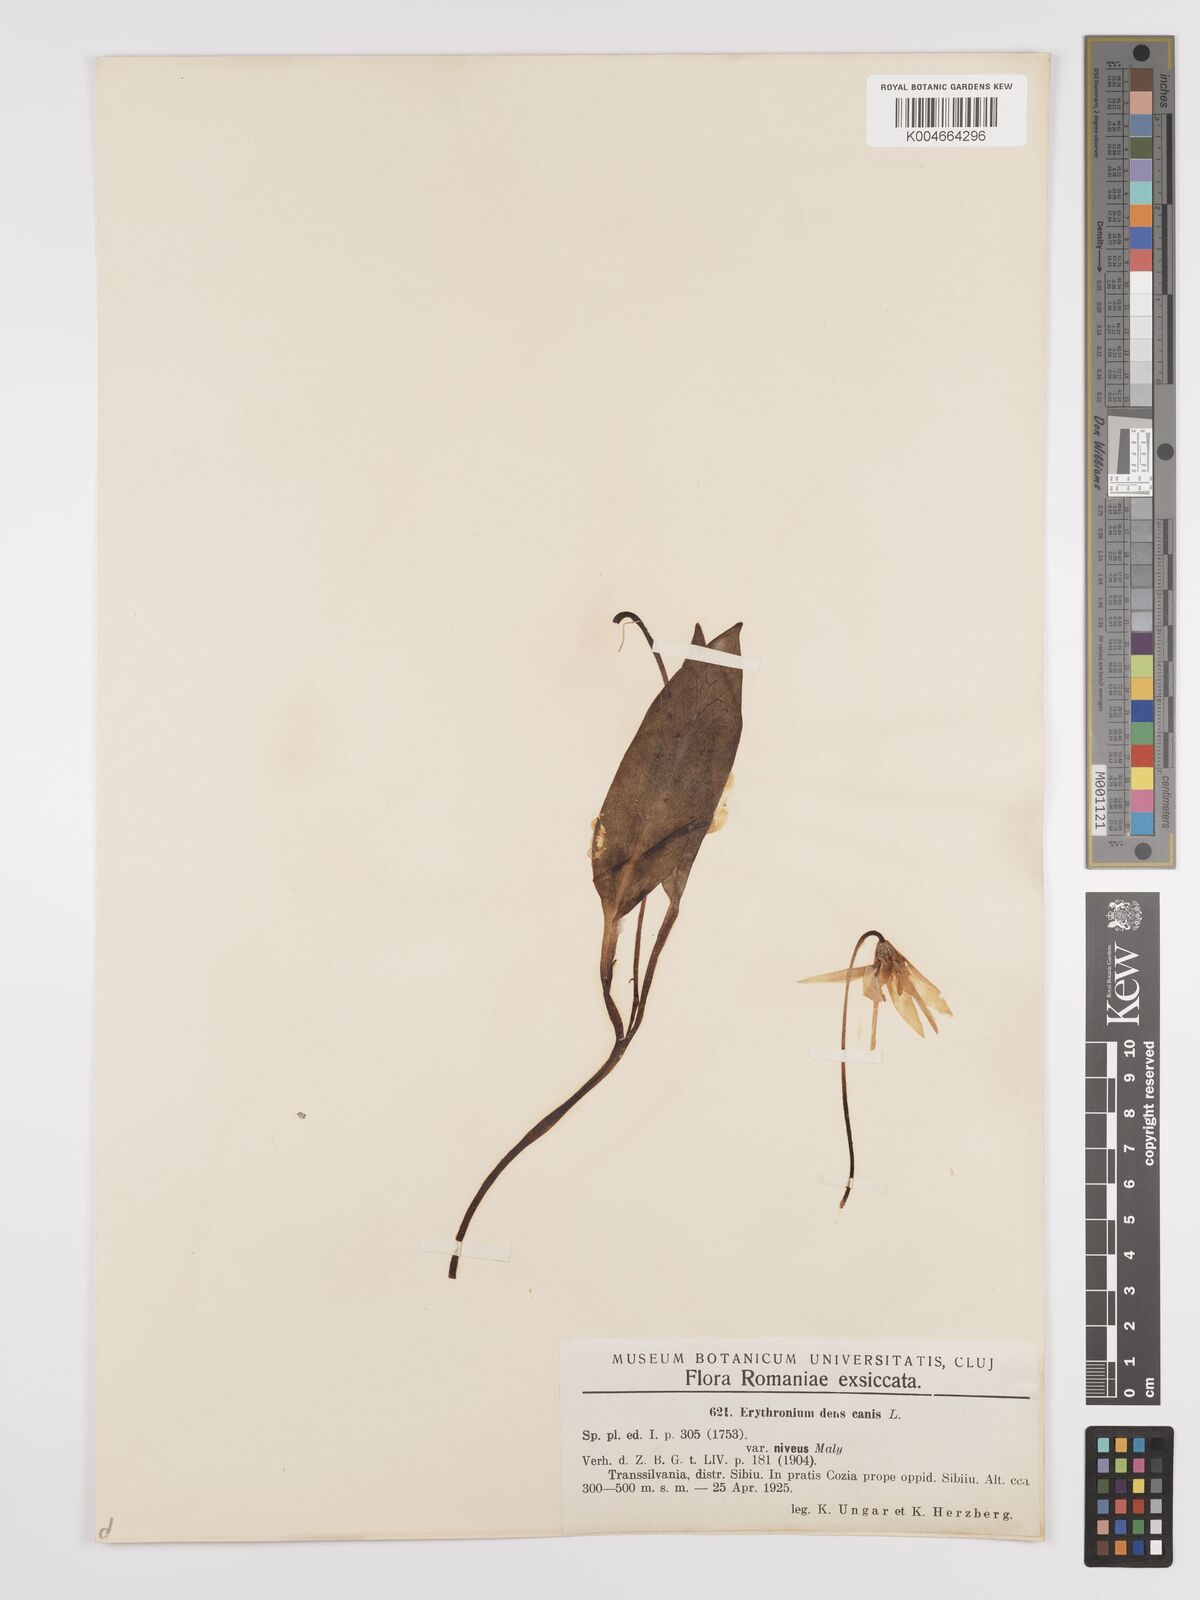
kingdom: Plantae
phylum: Tracheophyta
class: Liliopsida
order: Liliales
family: Liliaceae
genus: Erythronium
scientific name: Erythronium dens-canis
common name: Dog's-tooth-violet
